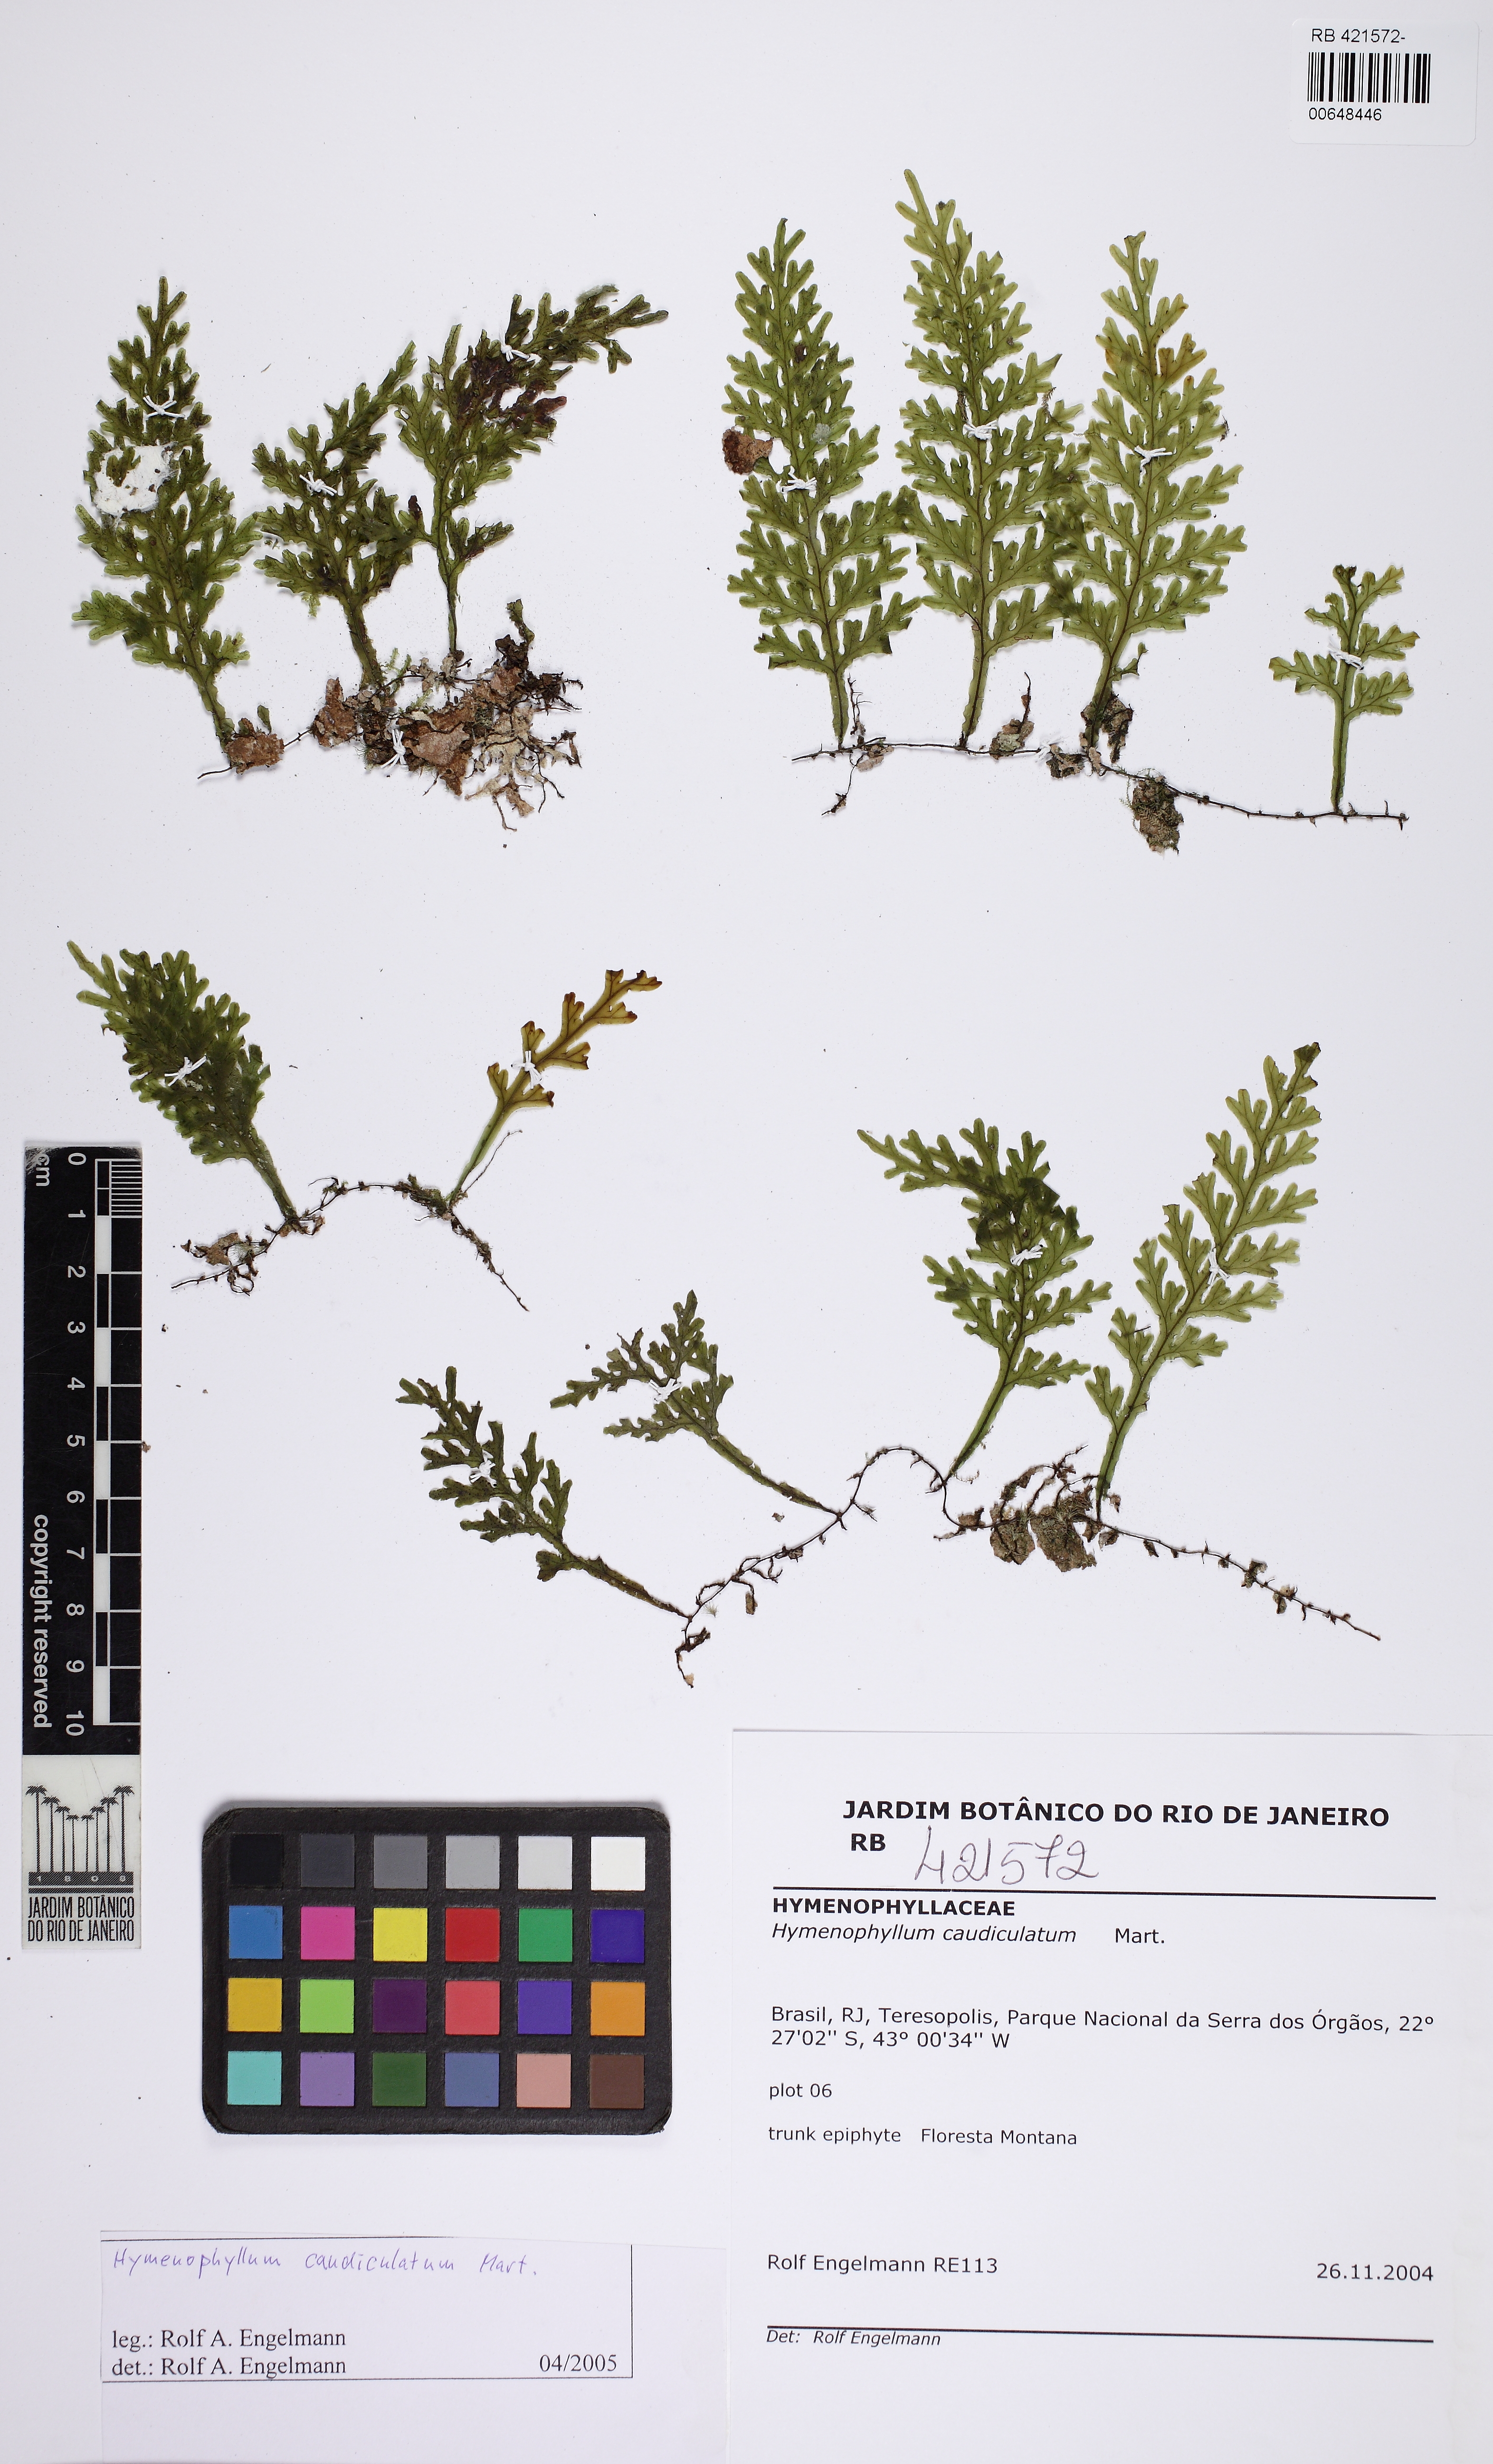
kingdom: Plantae
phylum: Tracheophyta
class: Polypodiopsida
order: Hymenophyllales
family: Hymenophyllaceae
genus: Hymenophyllum
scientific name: Hymenophyllum caudiculatum
